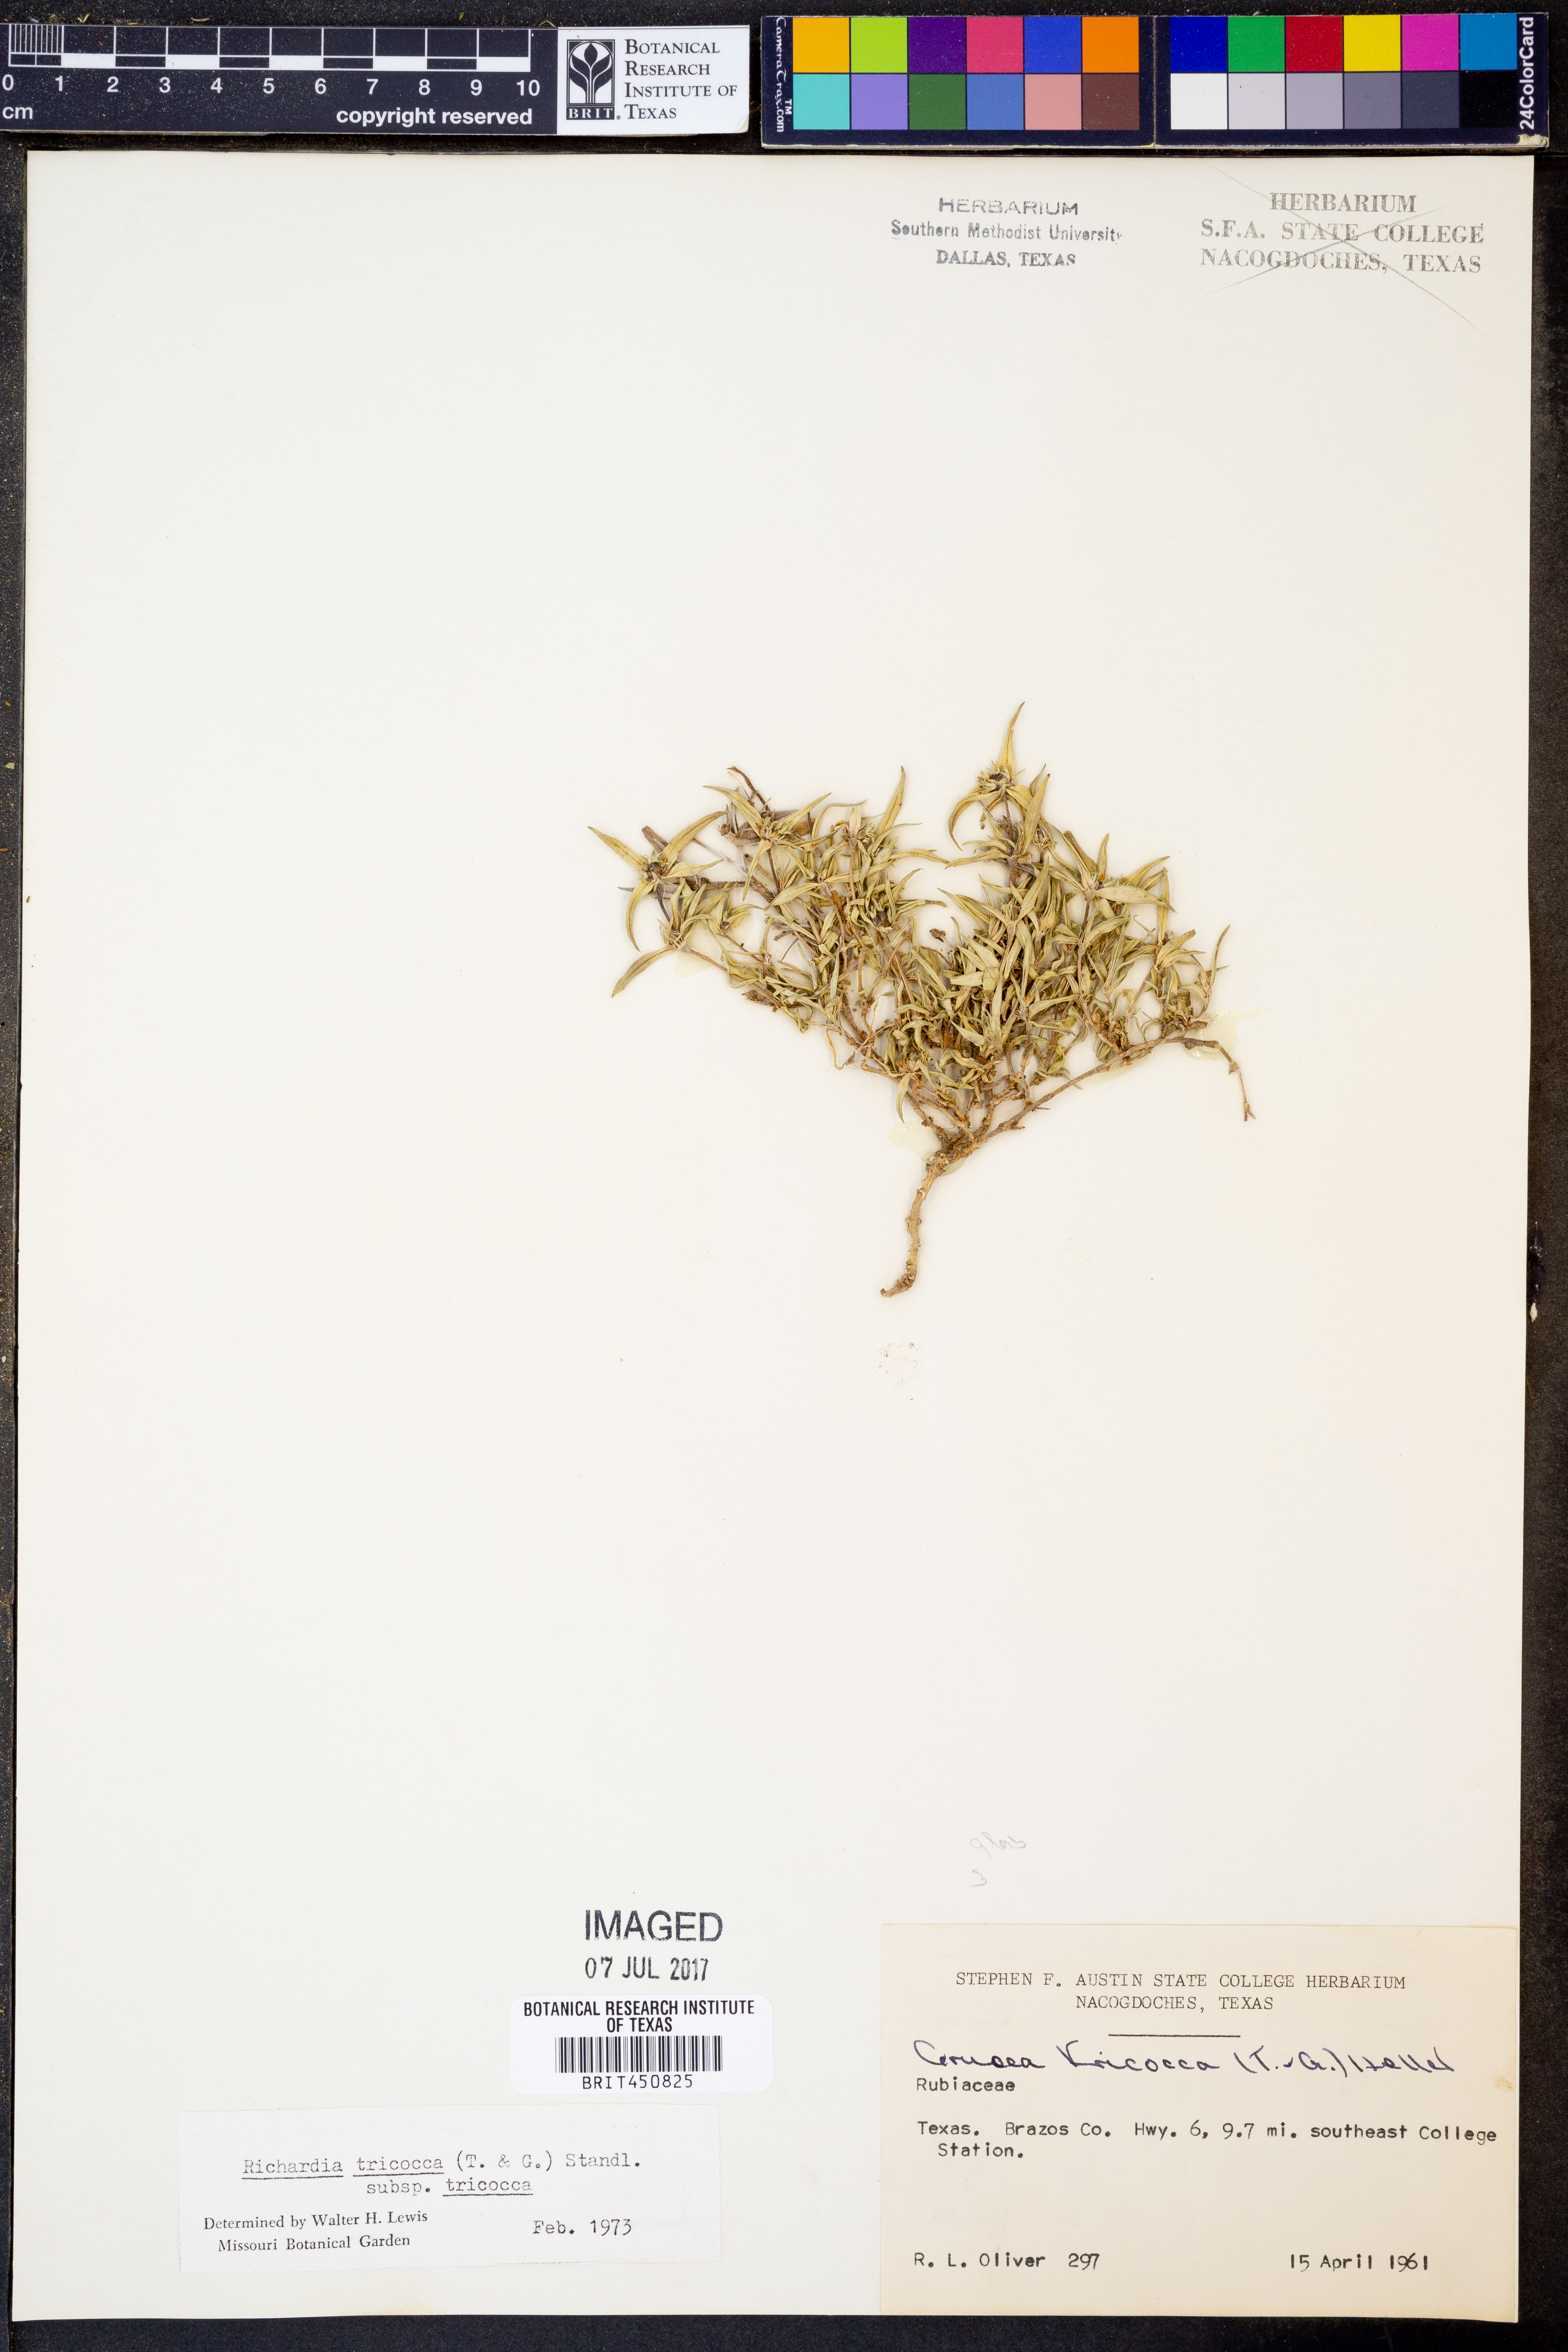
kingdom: Plantae
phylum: Tracheophyta
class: Magnoliopsida
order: Gentianales
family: Rubiaceae
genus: Richardia
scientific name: Richardia tricocca
